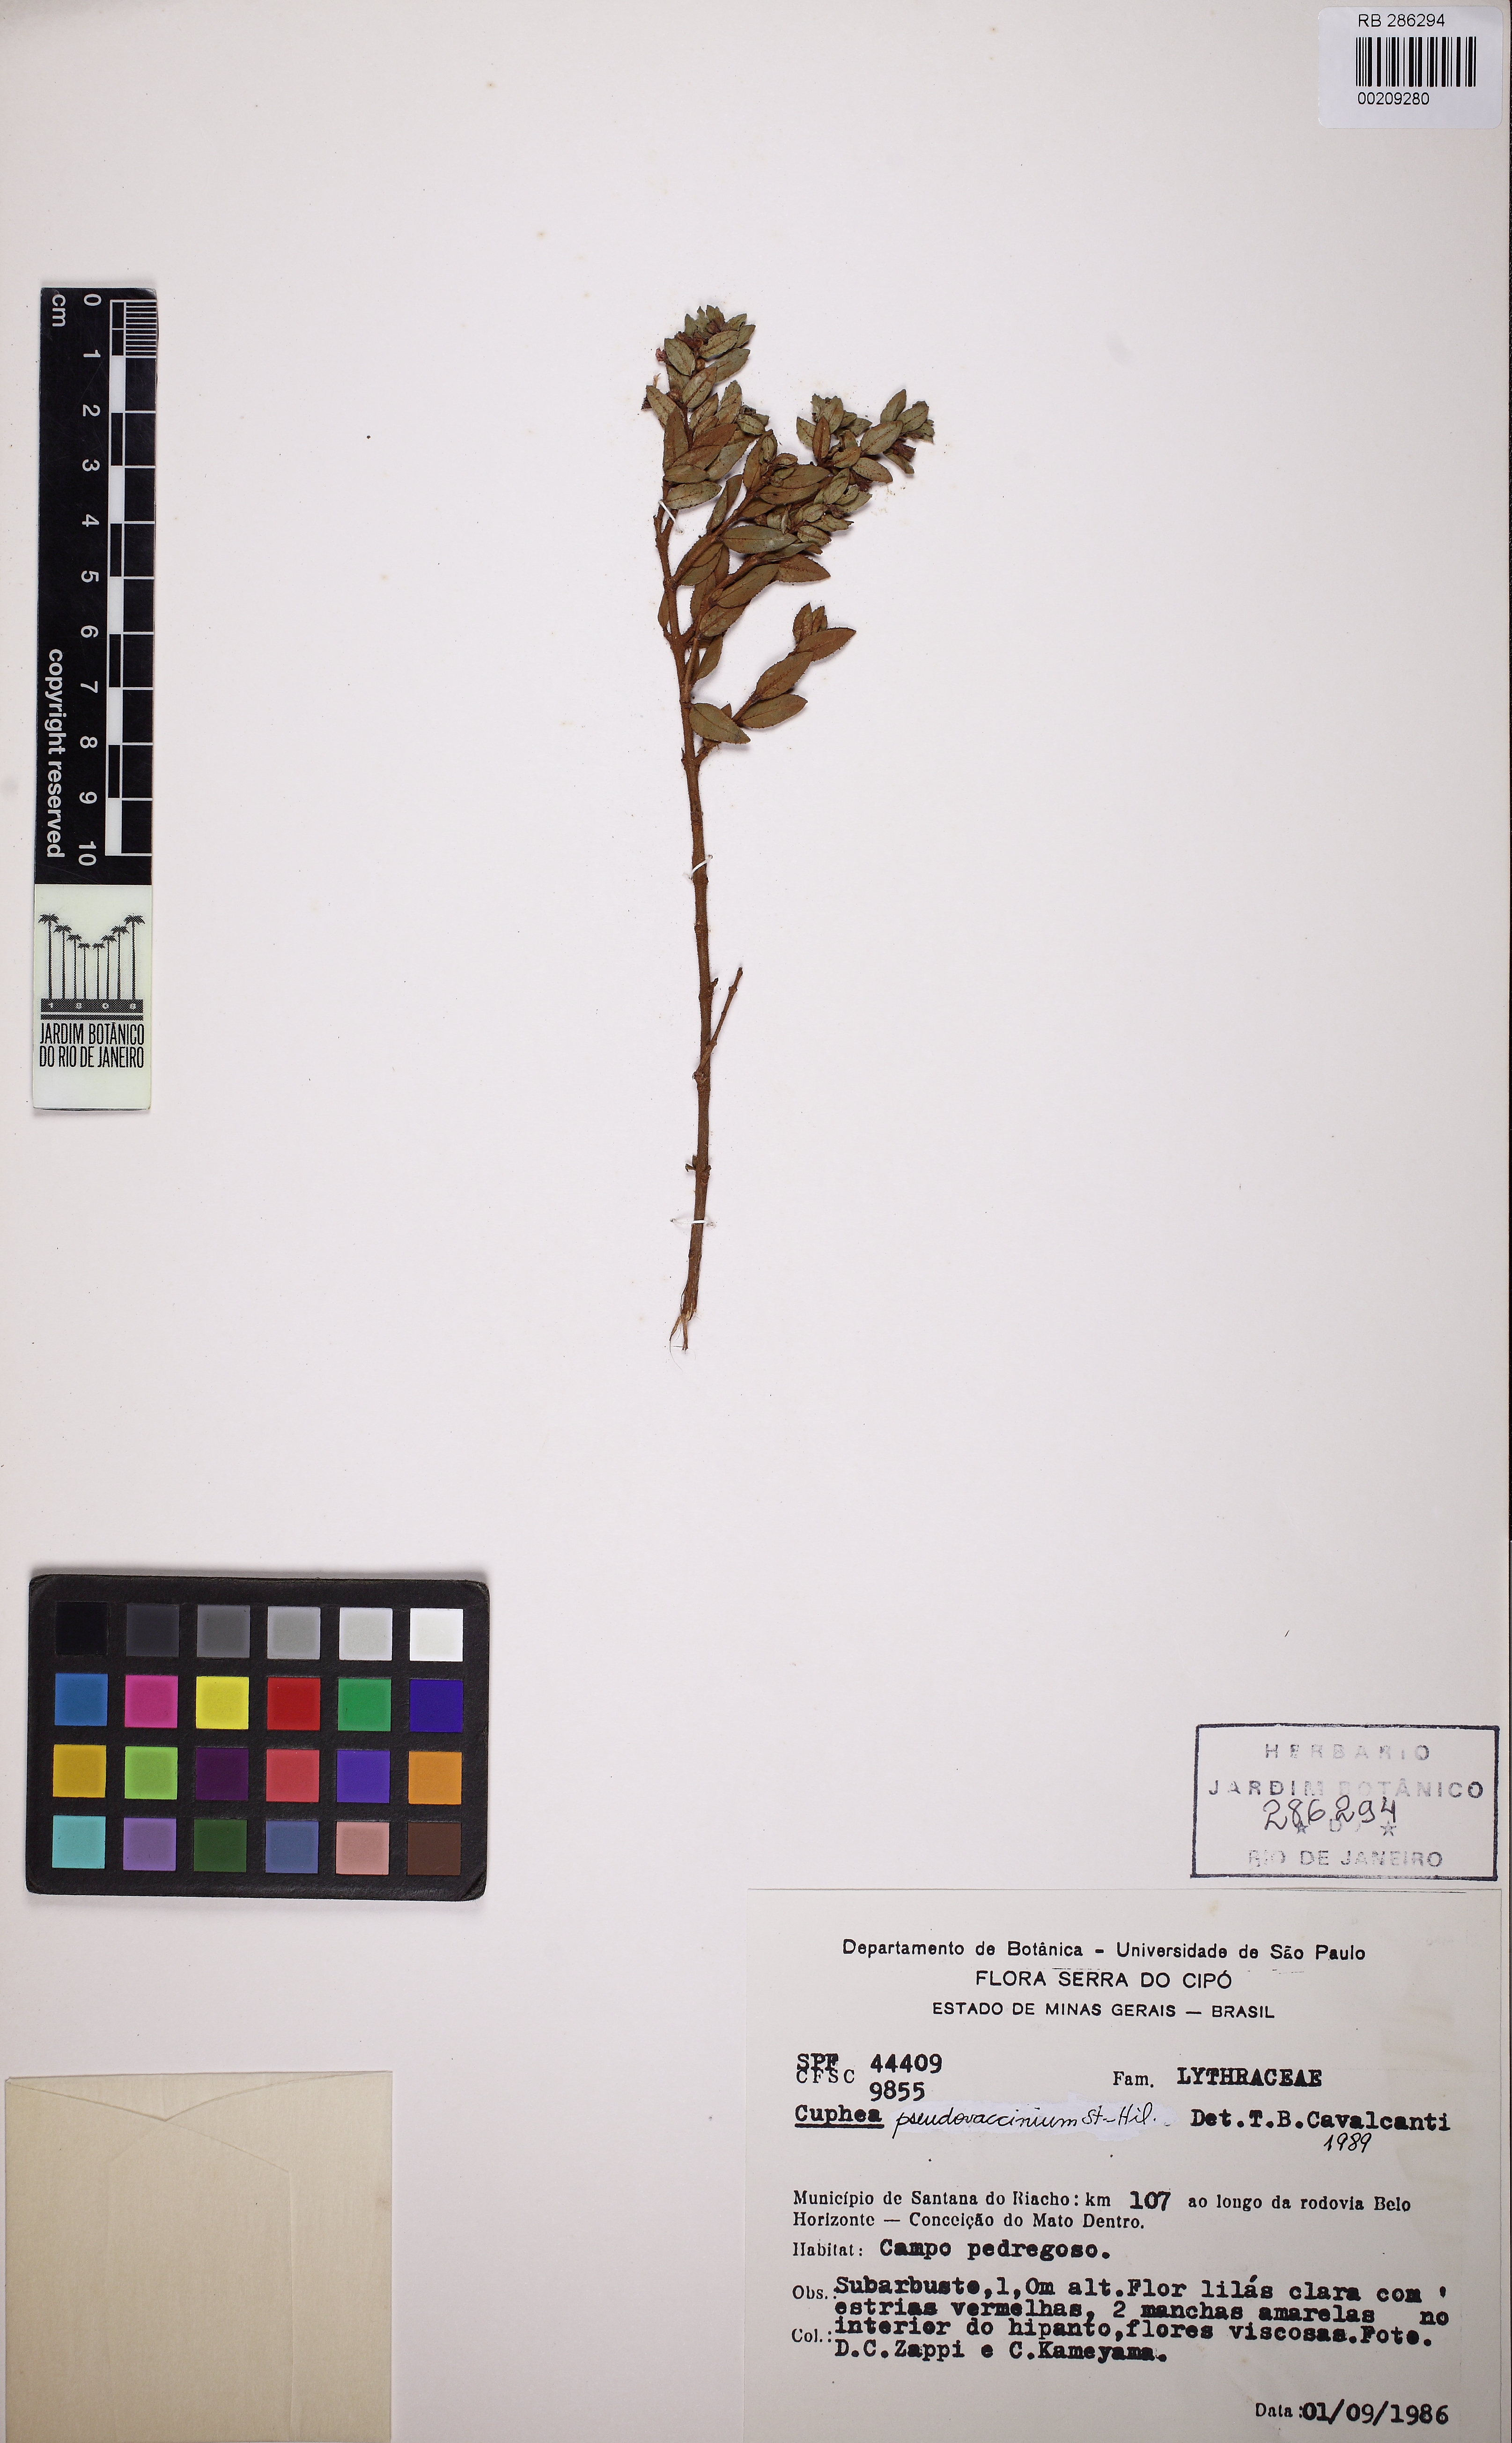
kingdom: Plantae
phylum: Tracheophyta
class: Magnoliopsida
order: Myrtales
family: Lythraceae
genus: Cuphea
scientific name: Cuphea pseudovaccinium
